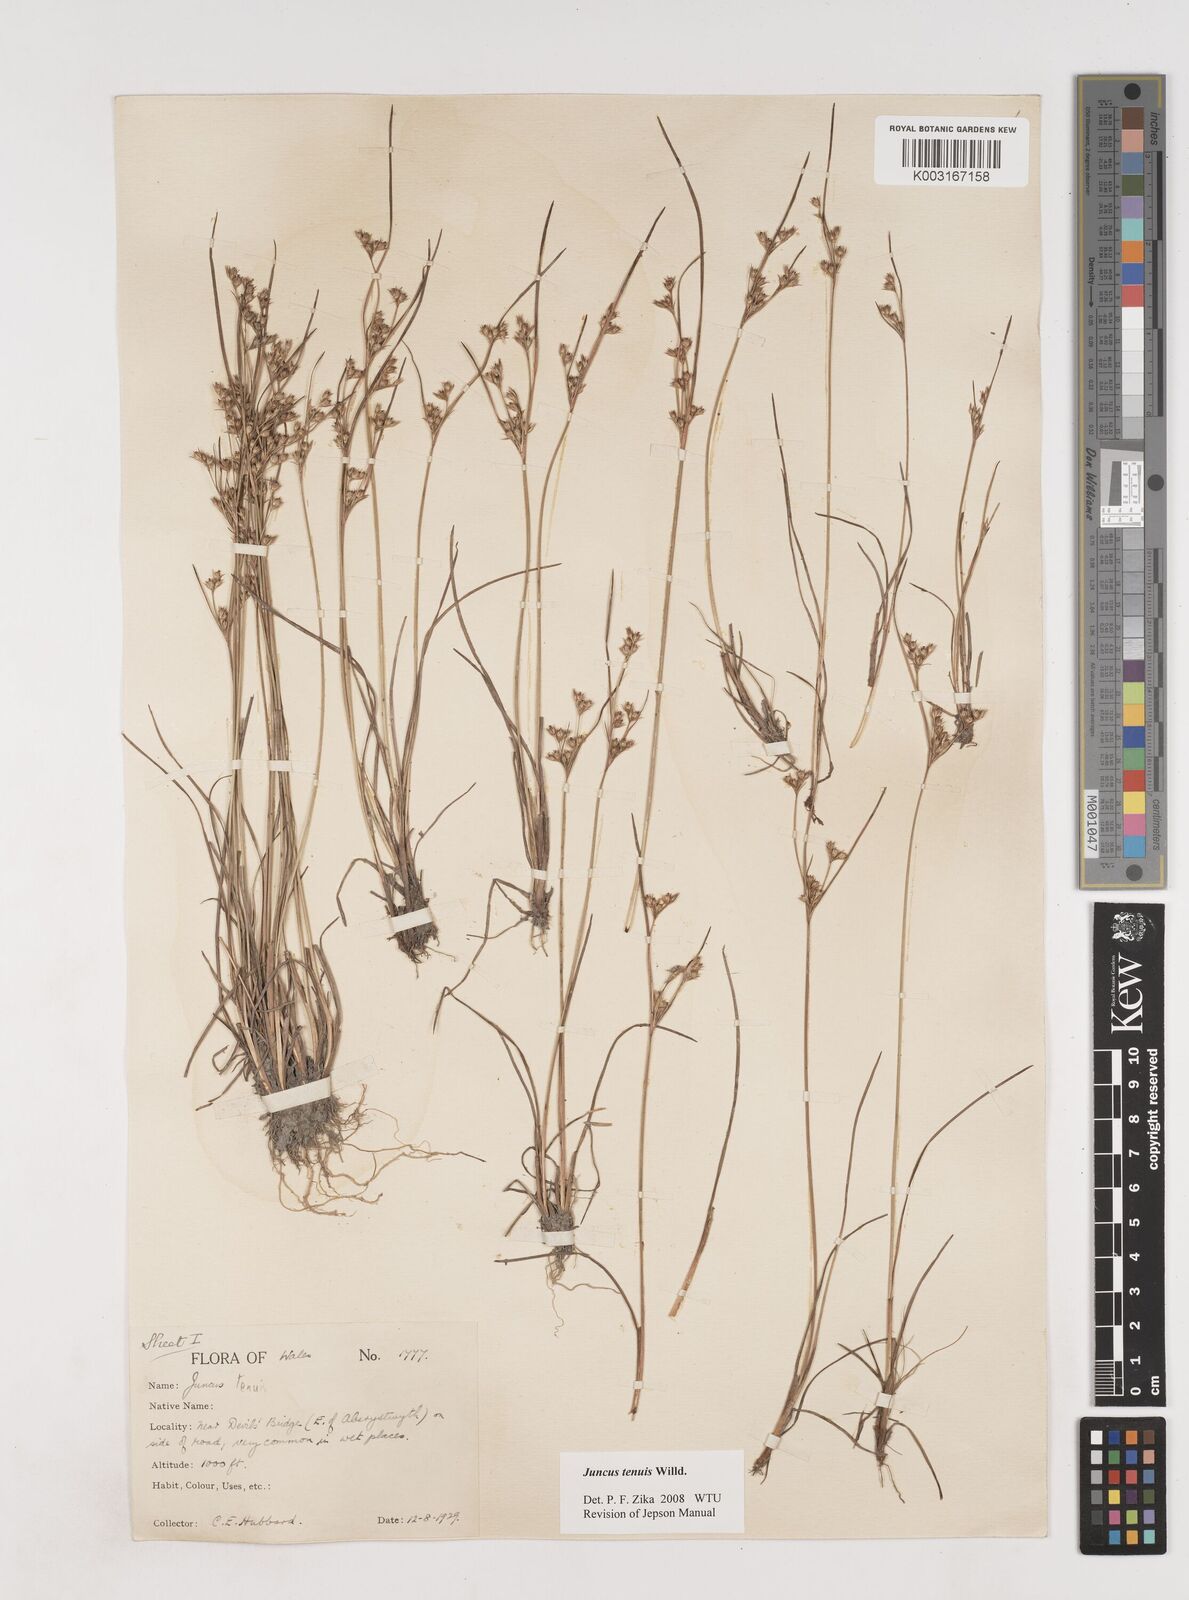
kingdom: Plantae
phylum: Tracheophyta
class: Liliopsida
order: Poales
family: Juncaceae
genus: Juncus
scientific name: Juncus tenuis
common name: Slender rush
